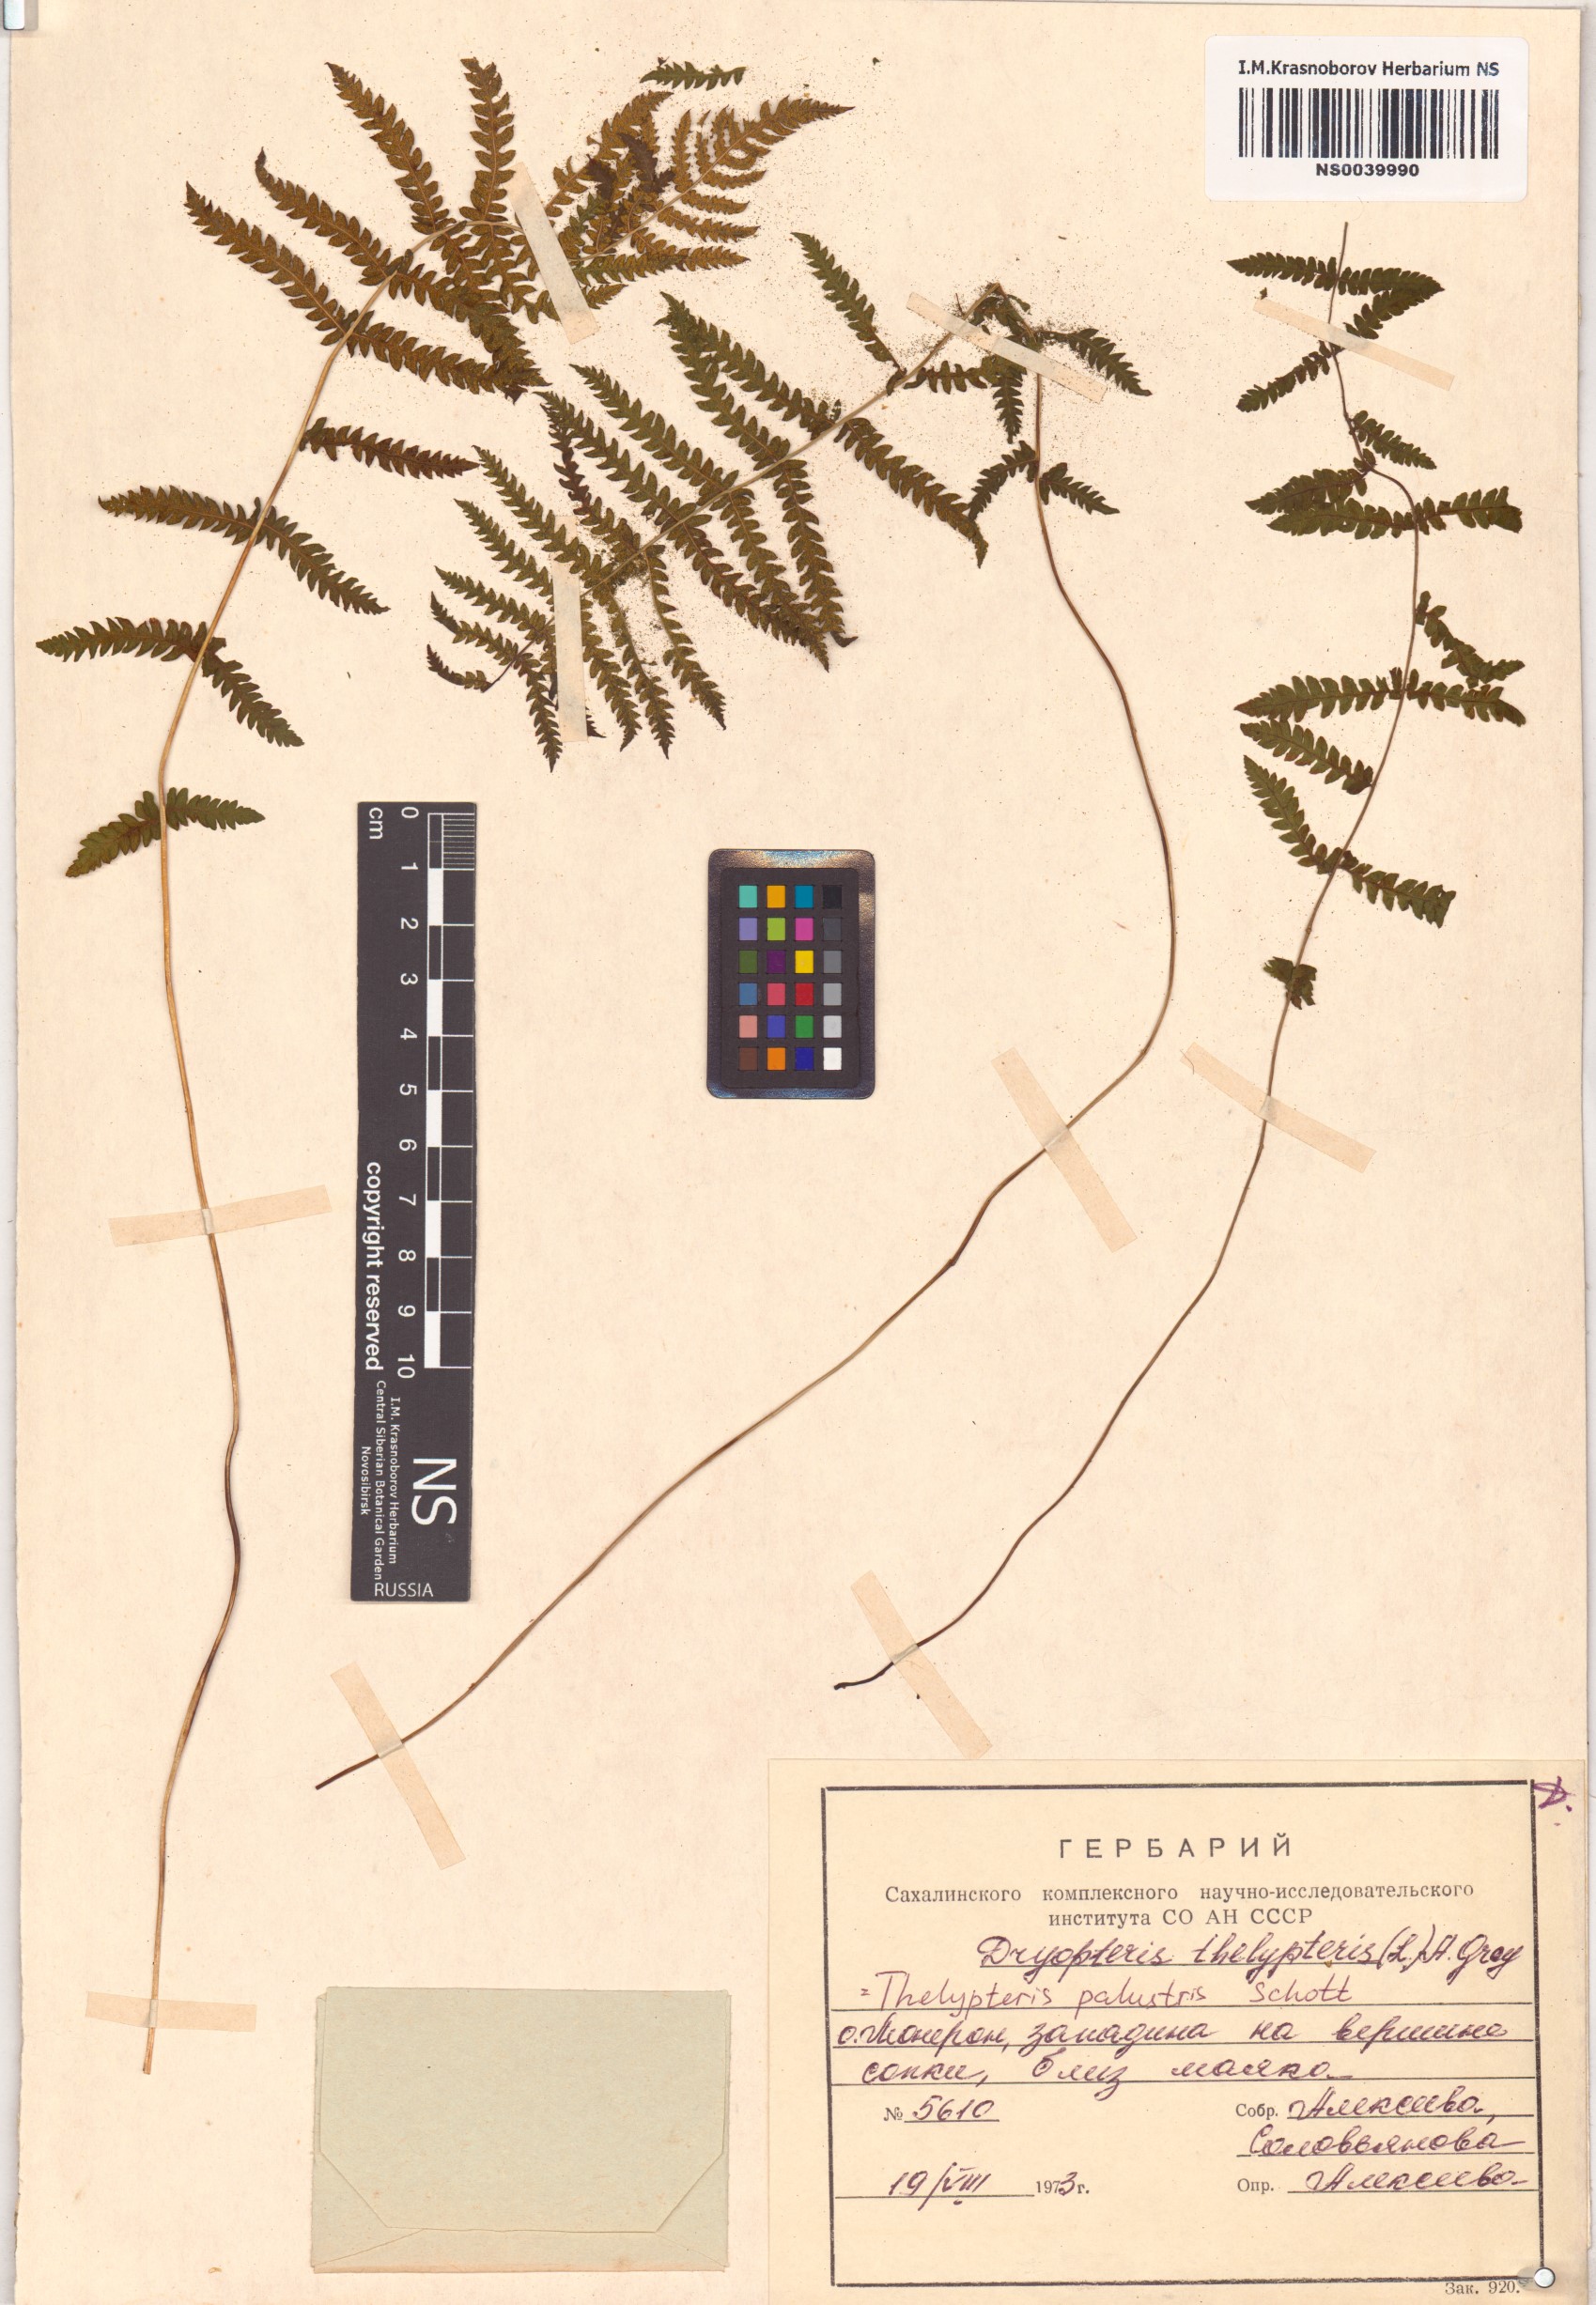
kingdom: Plantae
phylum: Tracheophyta
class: Polypodiopsida
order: Polypodiales
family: Thelypteridaceae
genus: Thelypteris
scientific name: Thelypteris palustris
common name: Marsh fern
